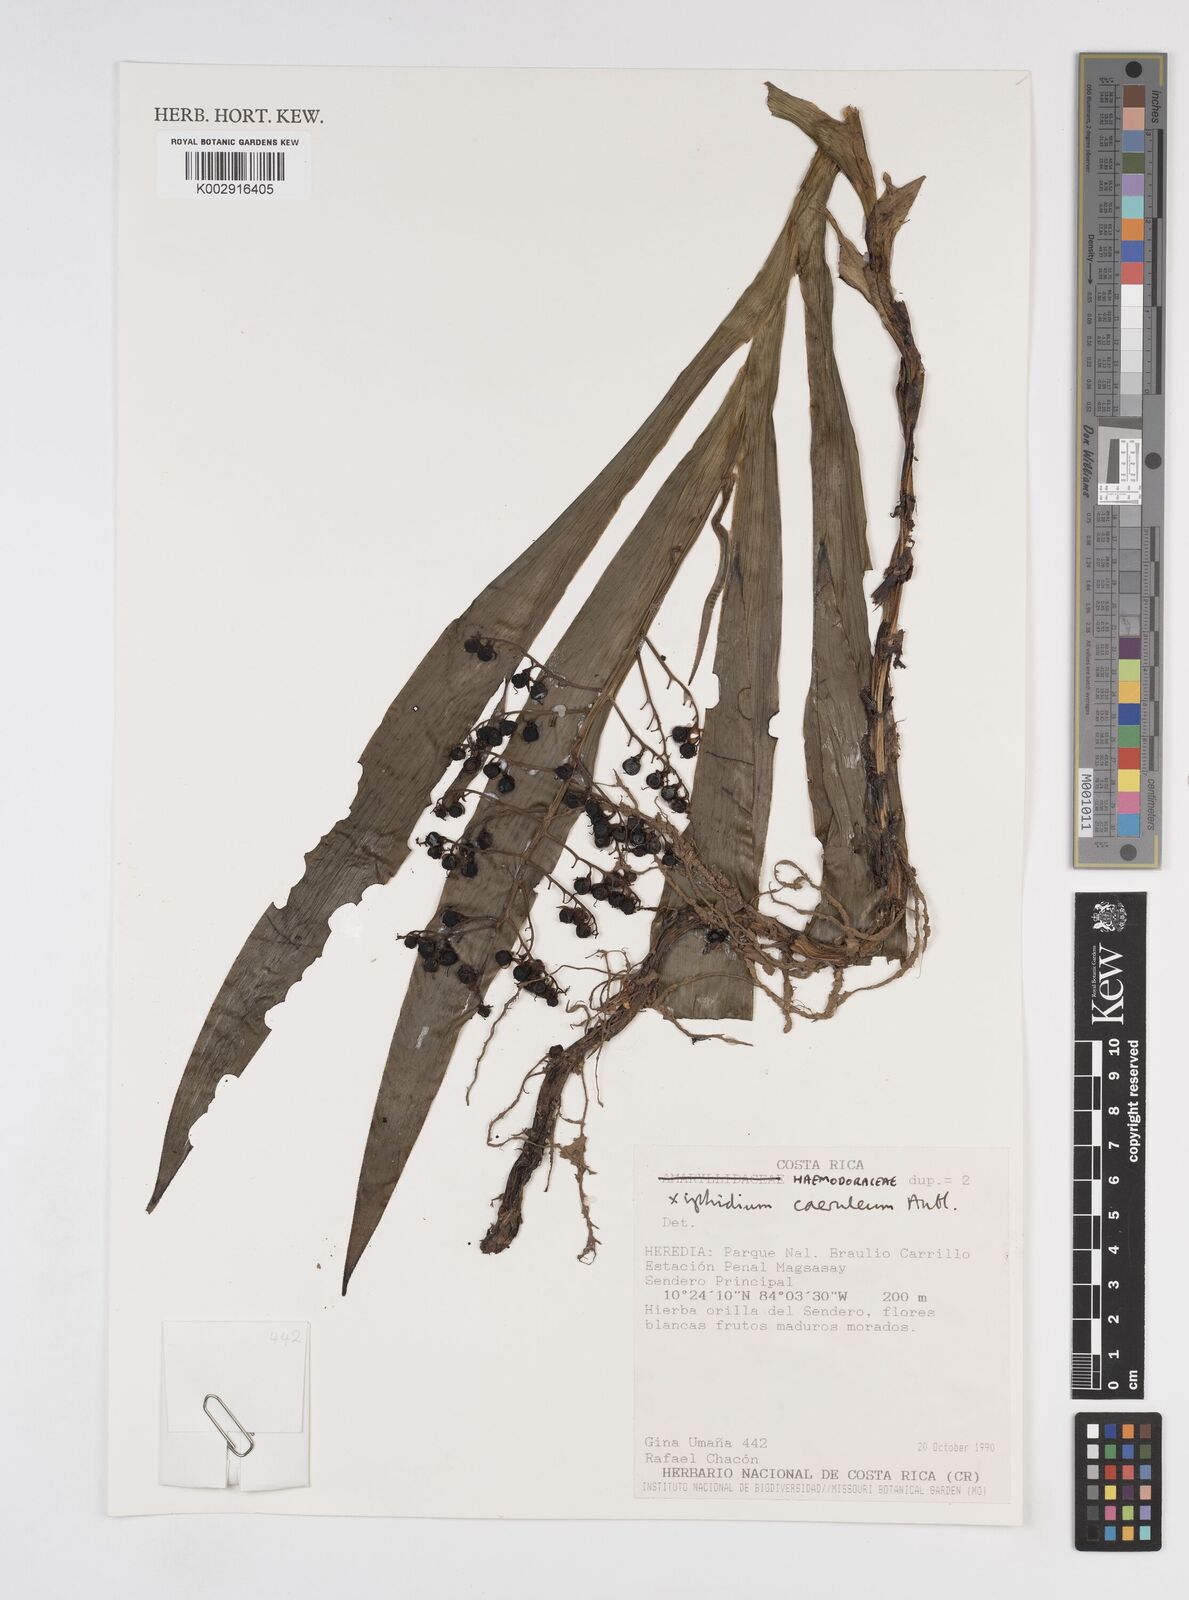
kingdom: Plantae
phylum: Tracheophyta
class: Liliopsida
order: Commelinales
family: Haemodoraceae
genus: Xiphidium
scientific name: Xiphidium caeruleum
